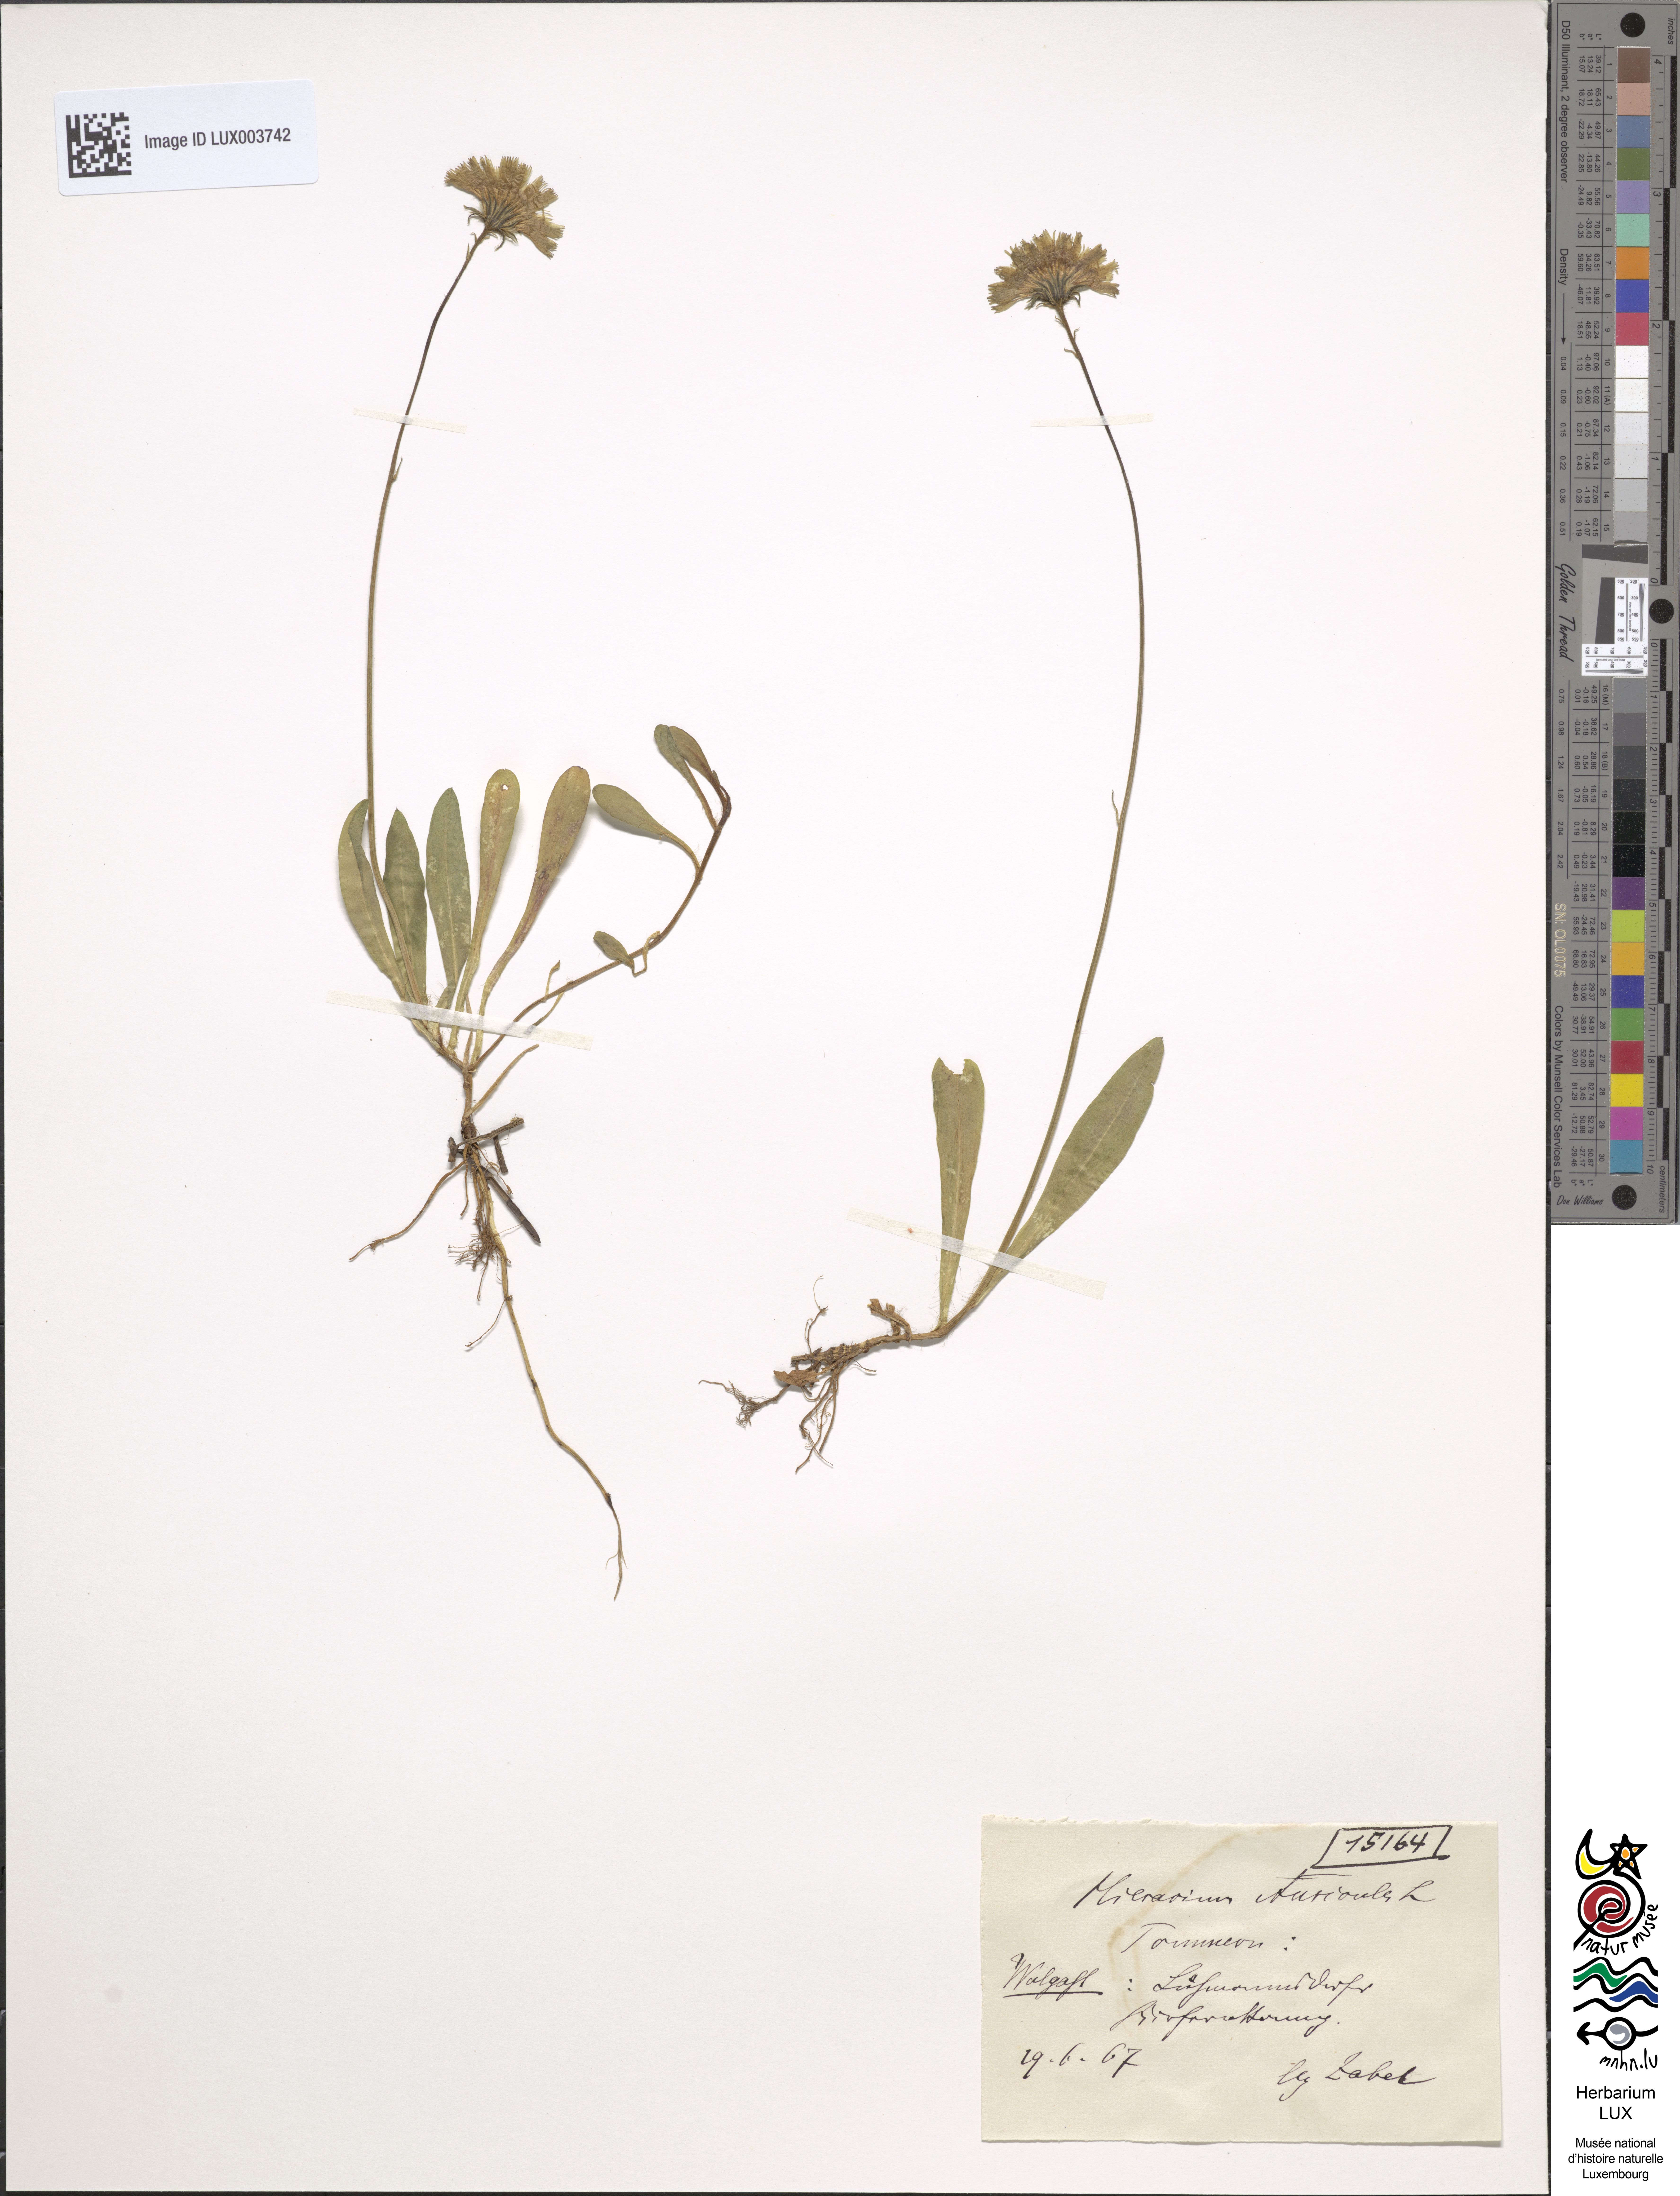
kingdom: Plantae
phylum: Tracheophyta
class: Magnoliopsida
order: Asterales
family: Asteraceae
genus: Pilosella
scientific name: Pilosella floribunda
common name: Glaucous hawkweed
